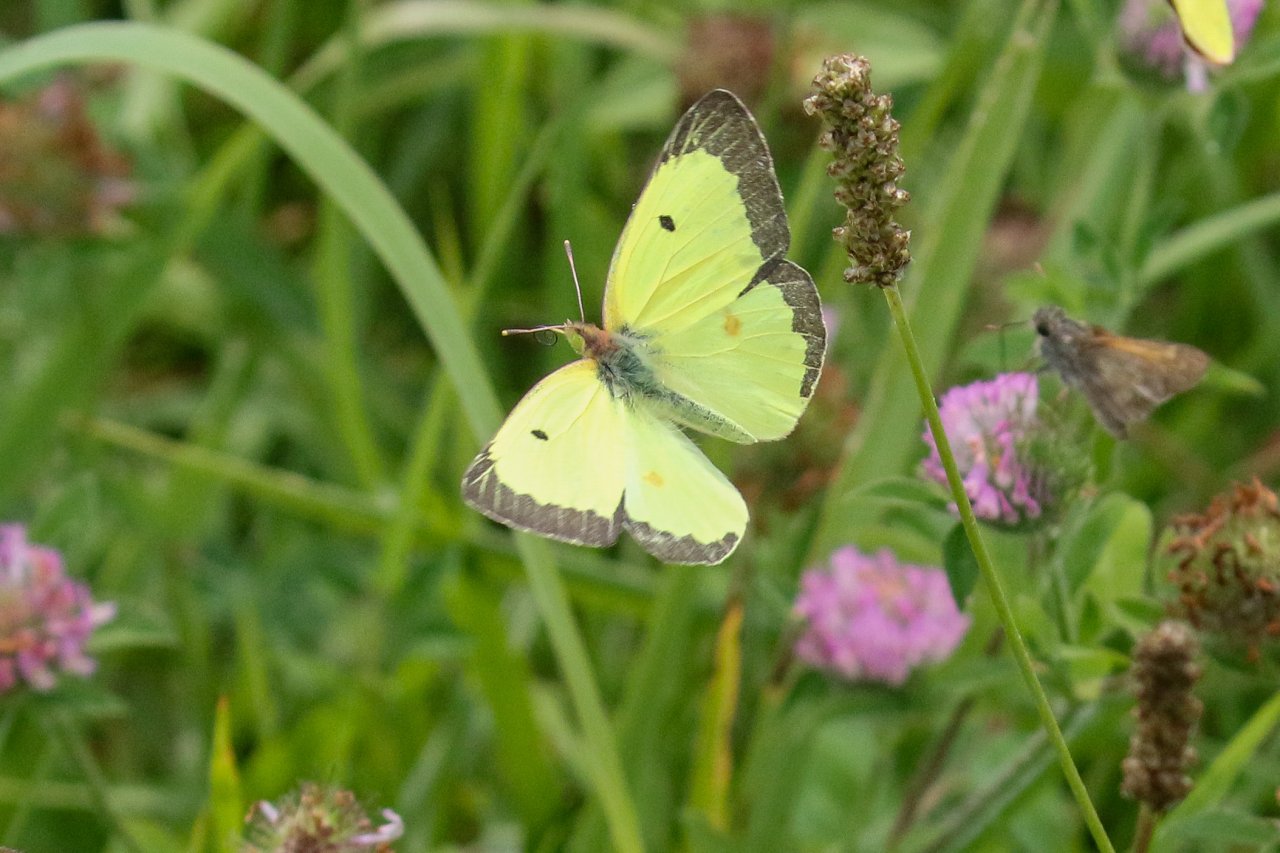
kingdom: Animalia
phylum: Arthropoda
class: Insecta
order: Lepidoptera
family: Pieridae
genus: Colias
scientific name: Colias philodice
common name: Clouded Sulphur
